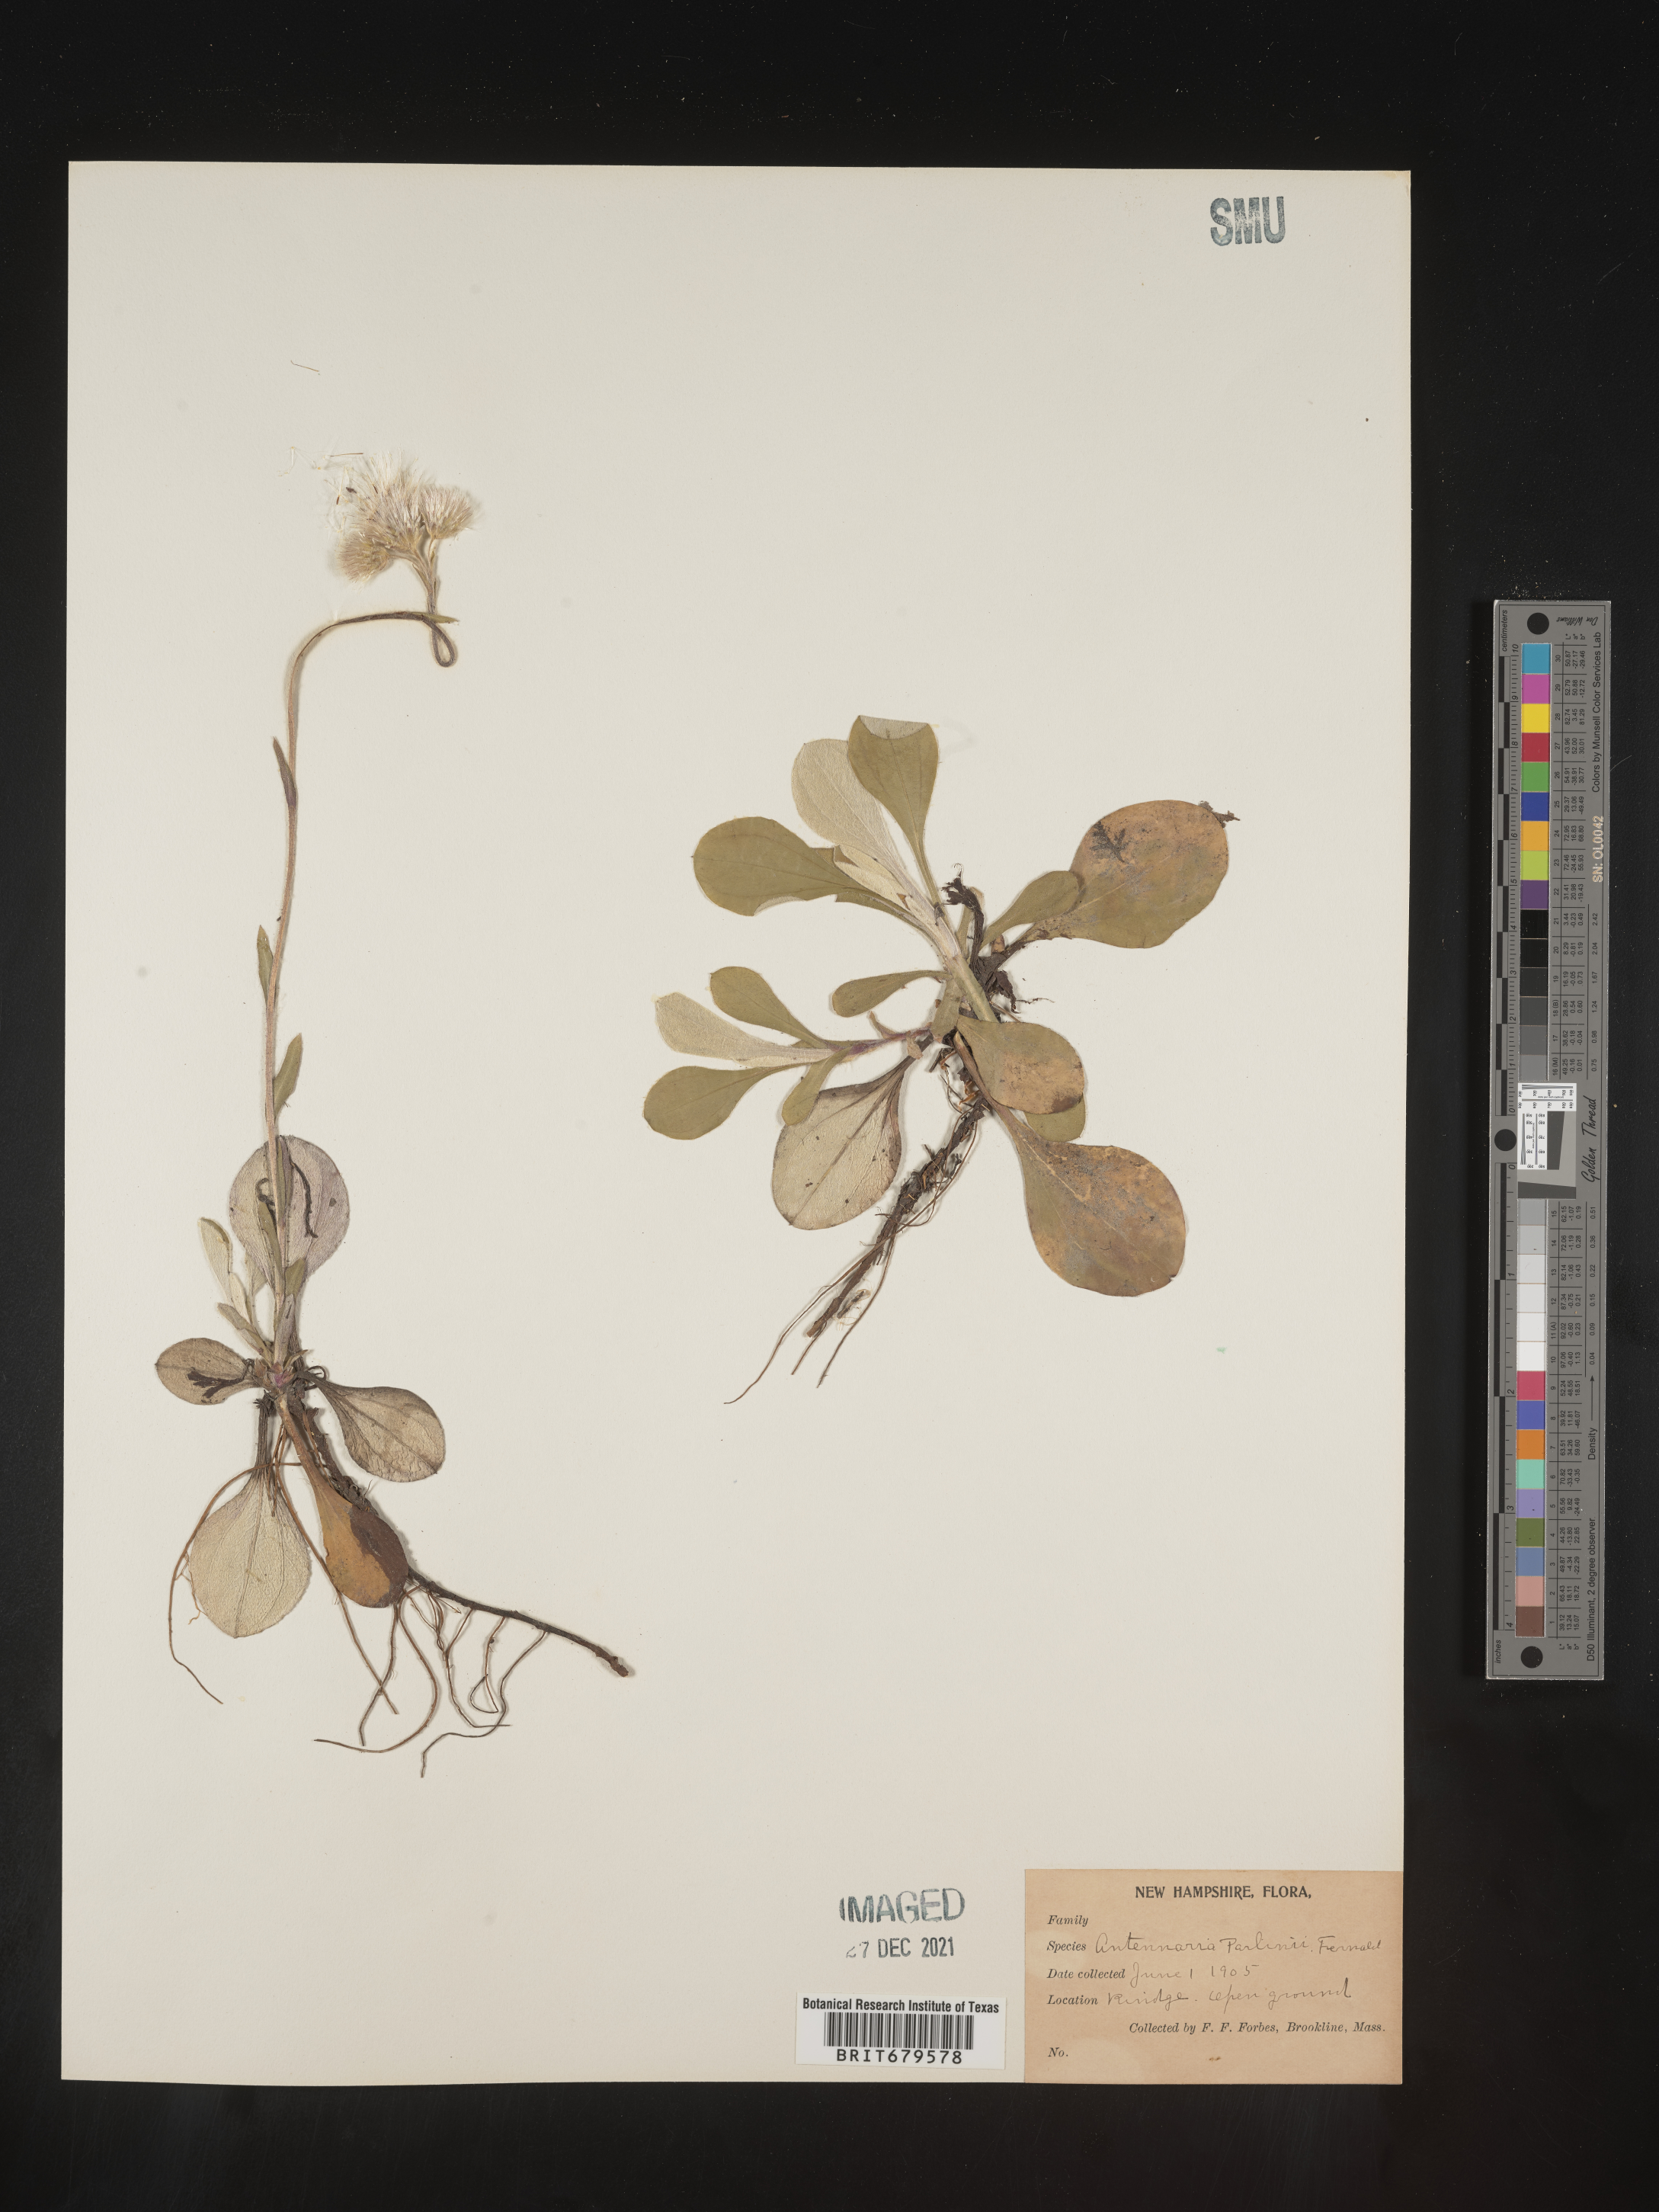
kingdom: Plantae
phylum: Tracheophyta
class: Magnoliopsida
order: Asterales
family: Asteraceae
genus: Antennaria
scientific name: Antennaria parlinii
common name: Parlin's pussytoes
